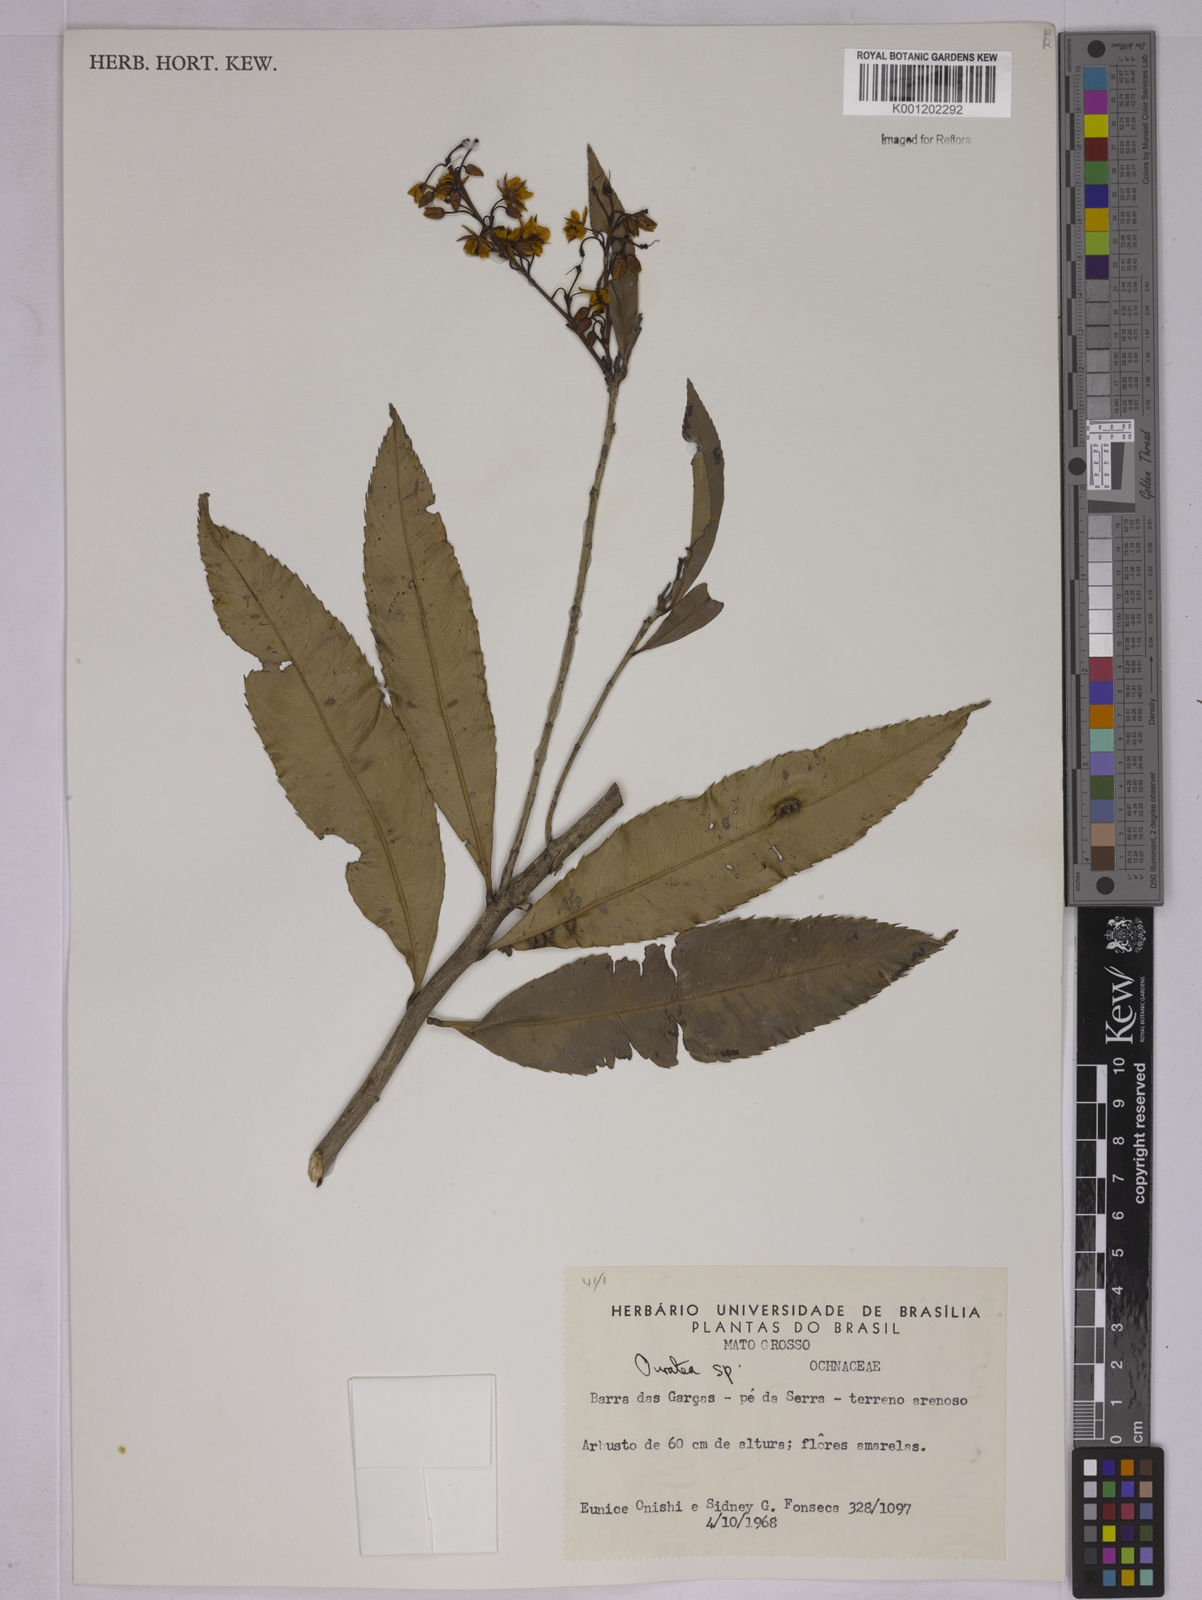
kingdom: Plantae
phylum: Tracheophyta
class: Magnoliopsida
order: Malpighiales
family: Ochnaceae
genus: Ouratea
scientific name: Ouratea
